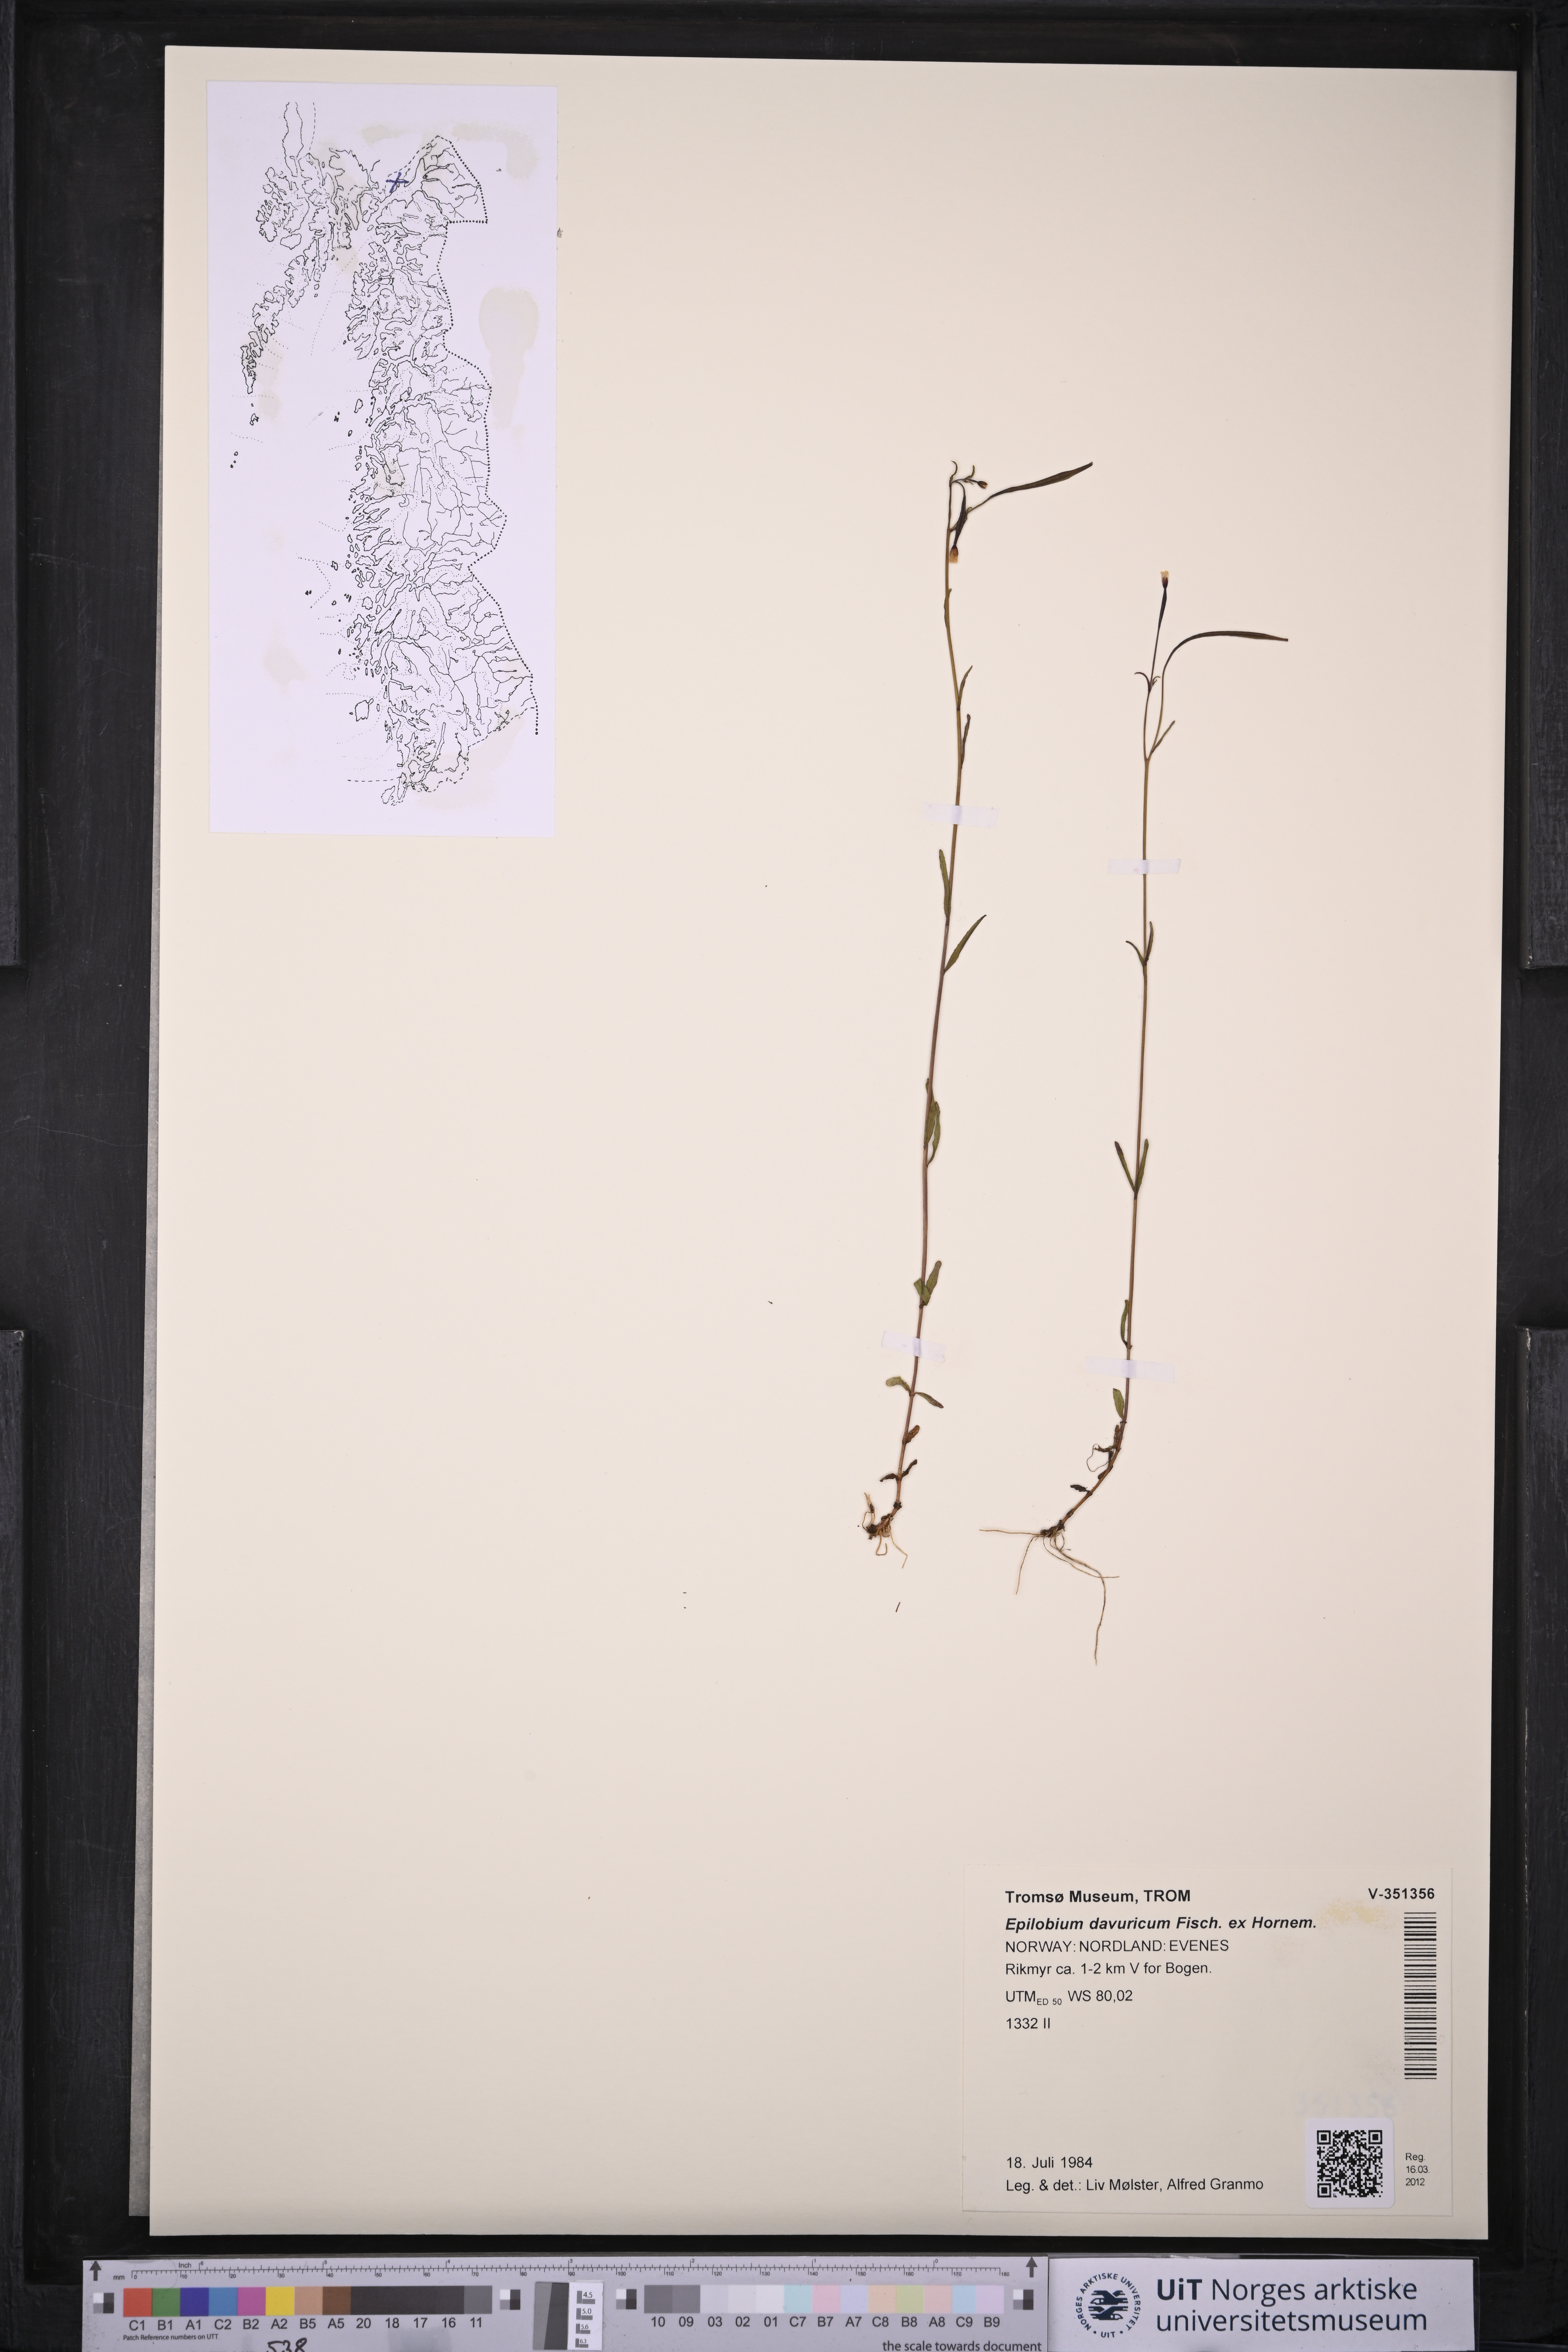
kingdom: Plantae
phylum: Tracheophyta
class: Magnoliopsida
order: Myrtales
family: Onagraceae
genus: Epilobium
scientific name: Epilobium davuricum
